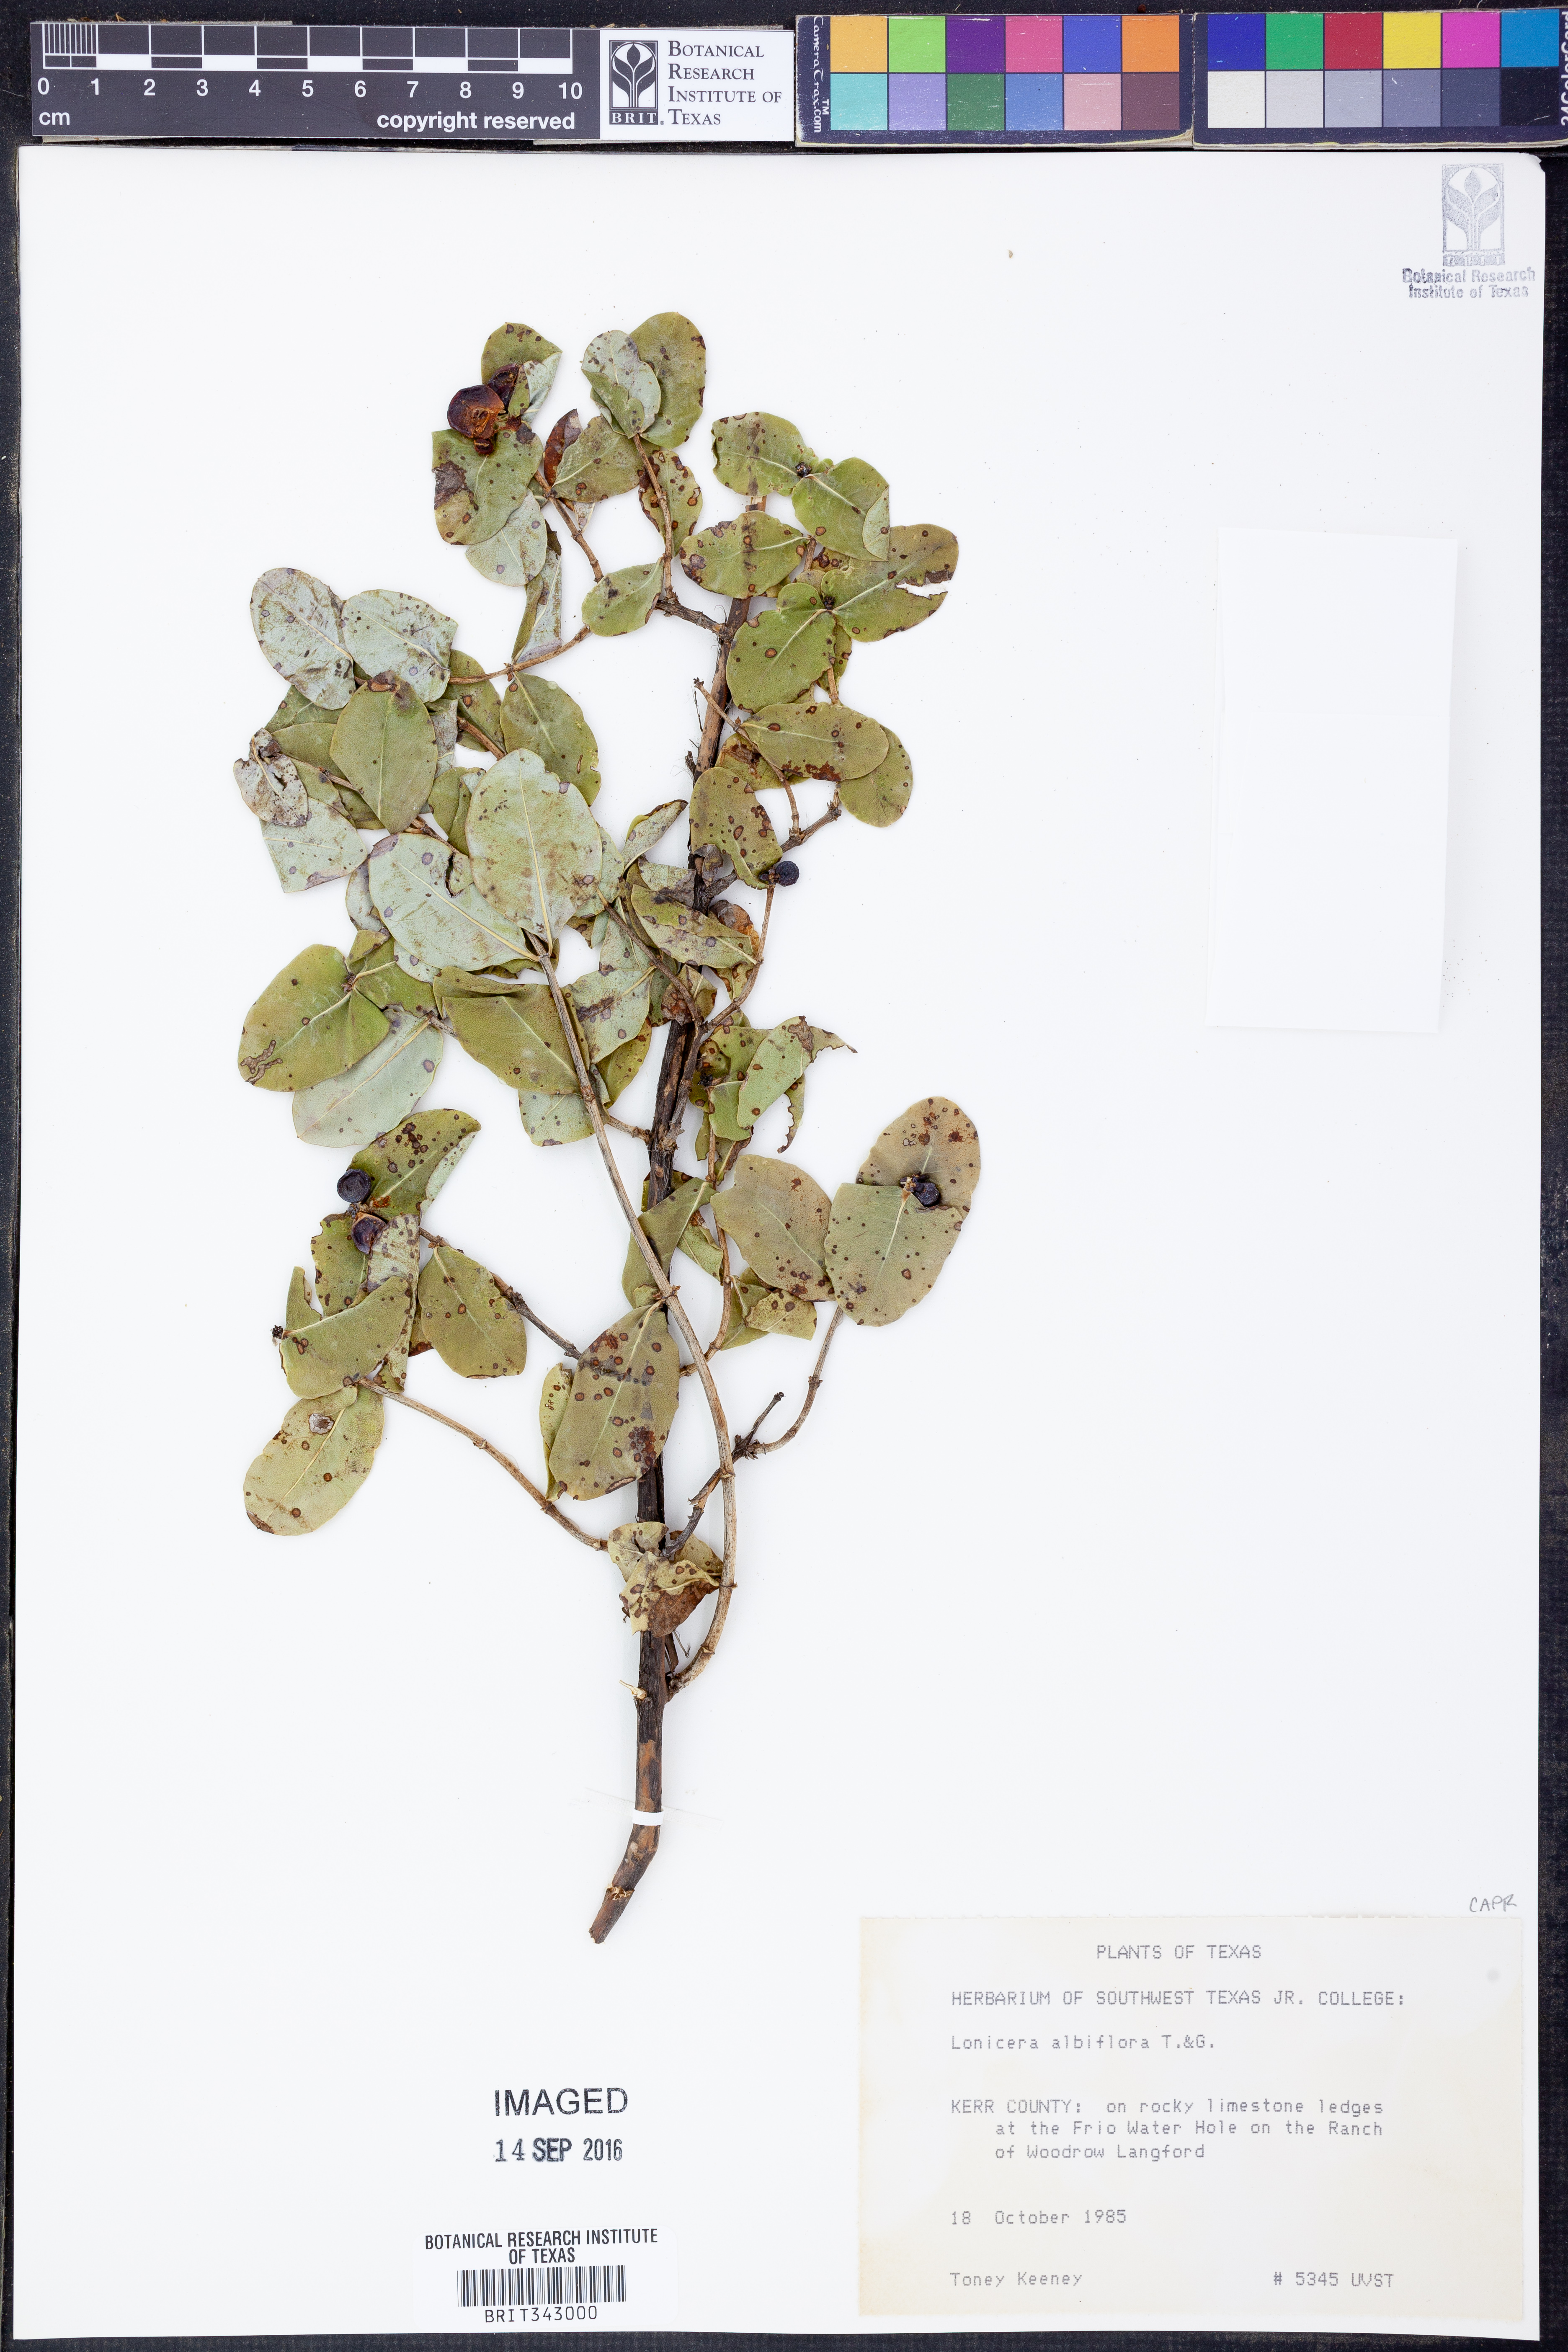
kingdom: Plantae
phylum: Tracheophyta
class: Magnoliopsida
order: Dipsacales
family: Caprifoliaceae
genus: Lonicera
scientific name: Lonicera albiflora
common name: White honeysuckle
